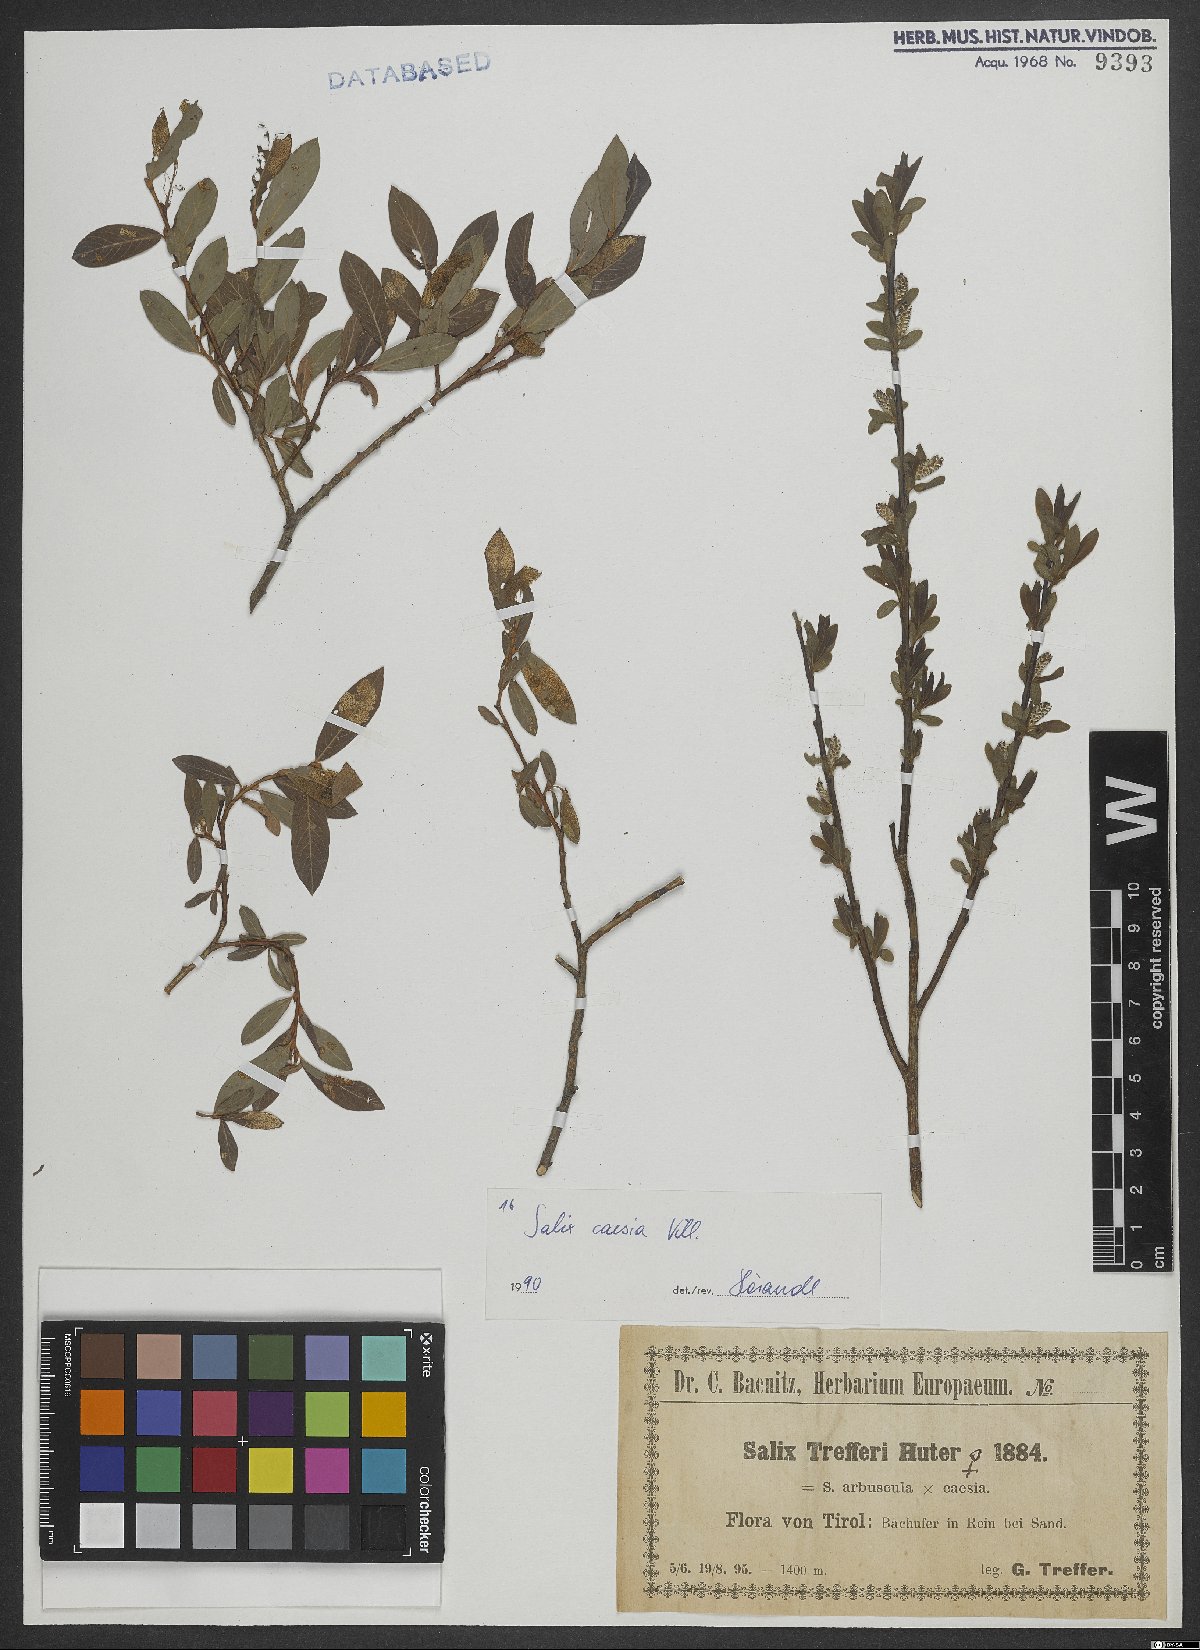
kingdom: Plantae
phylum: Tracheophyta
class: Magnoliopsida
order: Malpighiales
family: Salicaceae
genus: Salix
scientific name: Salix caesia
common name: Blue willow
